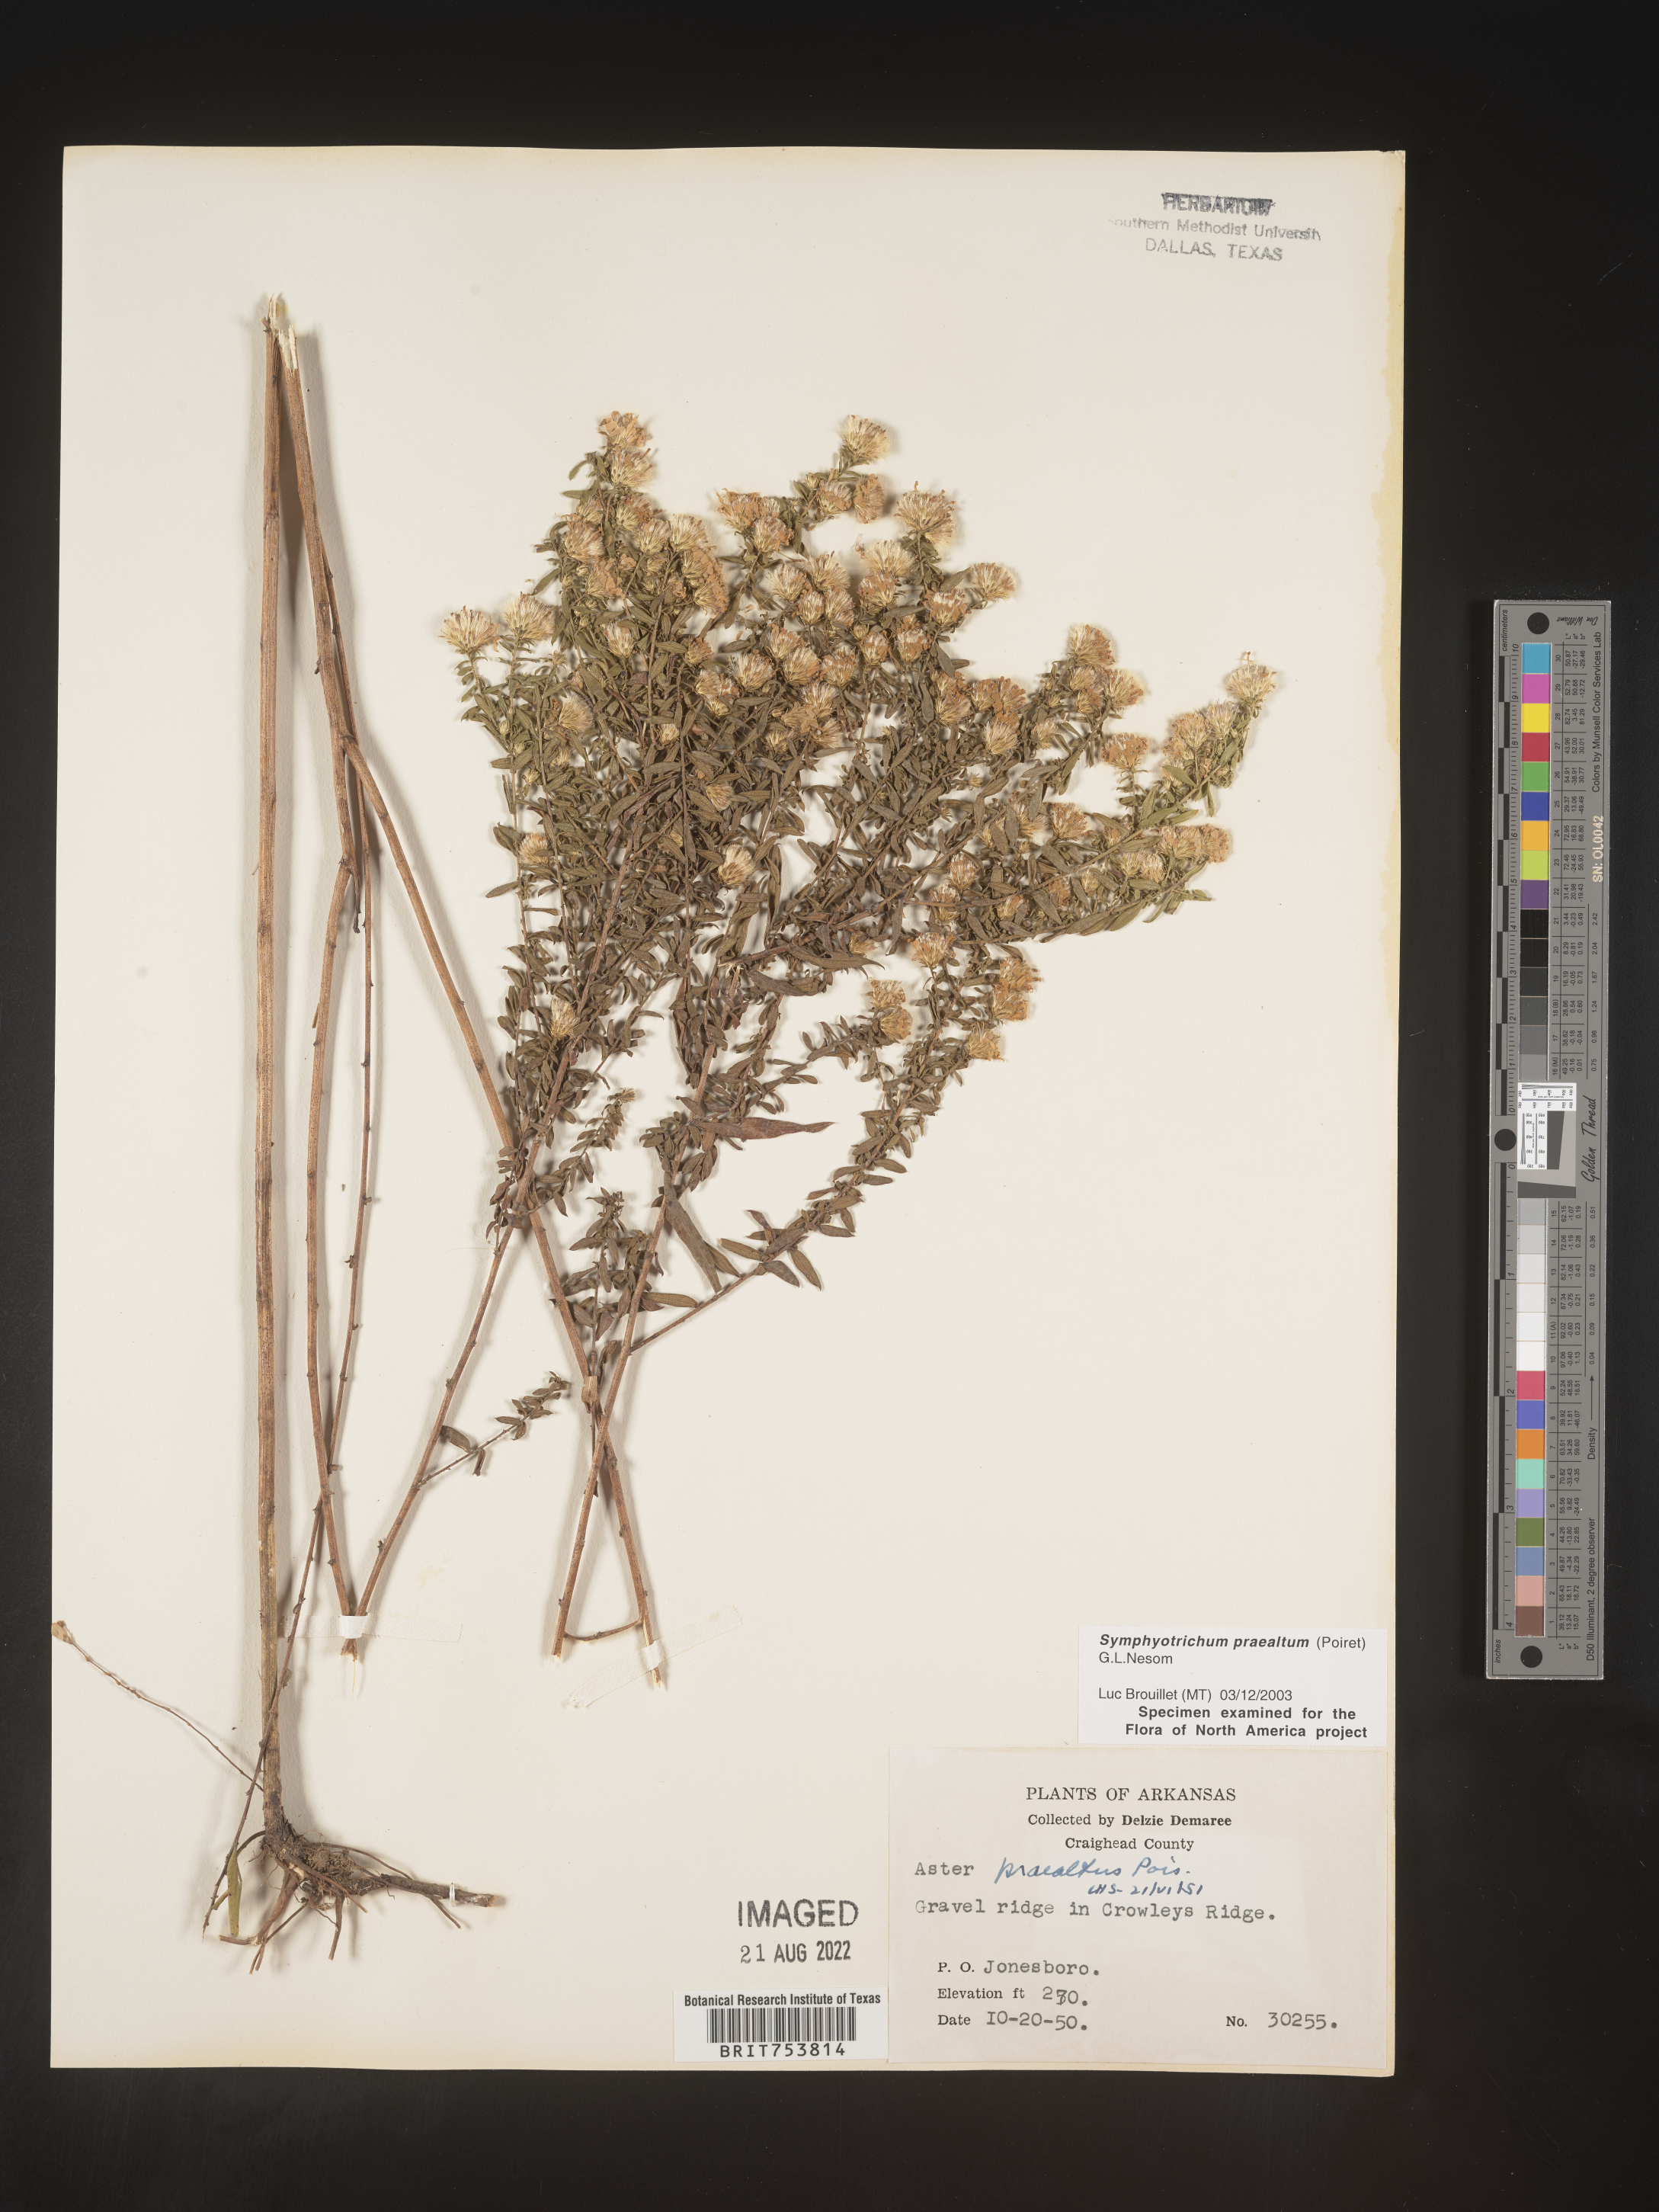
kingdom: Plantae
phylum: Tracheophyta
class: Magnoliopsida
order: Asterales
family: Asteraceae
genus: Symphyotrichum
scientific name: Symphyotrichum praealtum
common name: Willow aster
